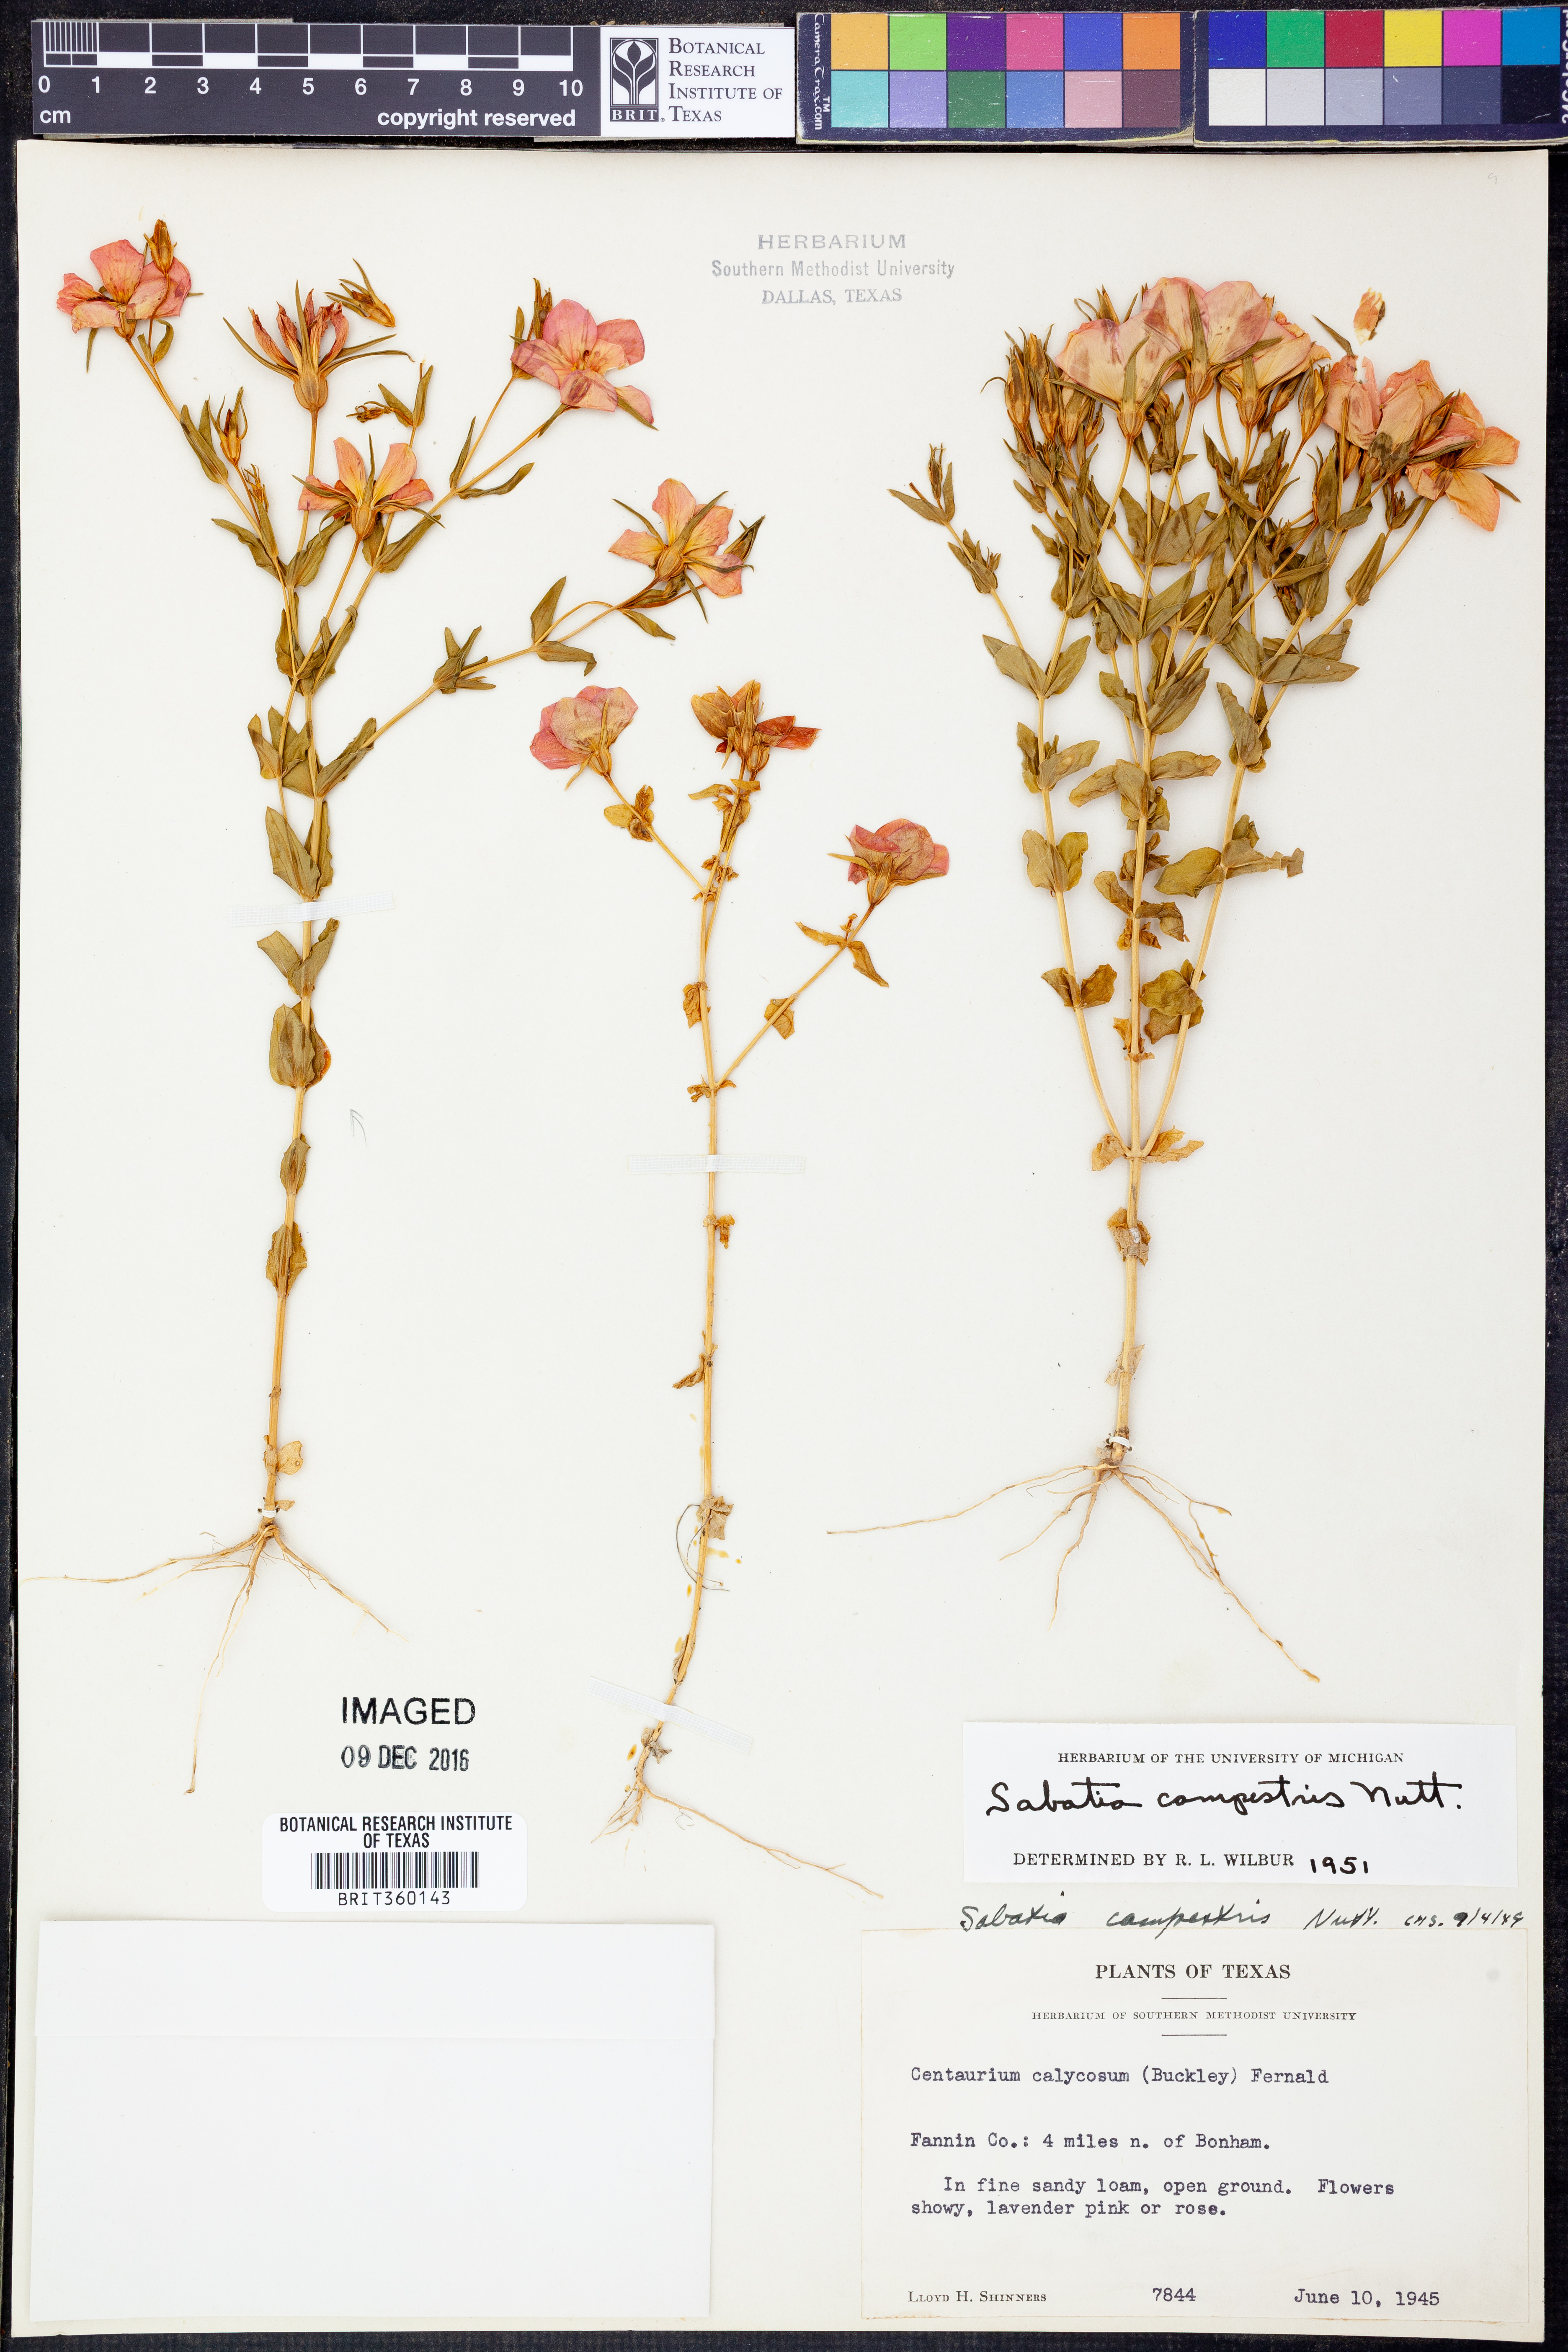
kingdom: Plantae
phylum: Tracheophyta
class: Magnoliopsida
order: Gentianales
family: Gentianaceae
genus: Sabatia
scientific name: Sabatia campestris
